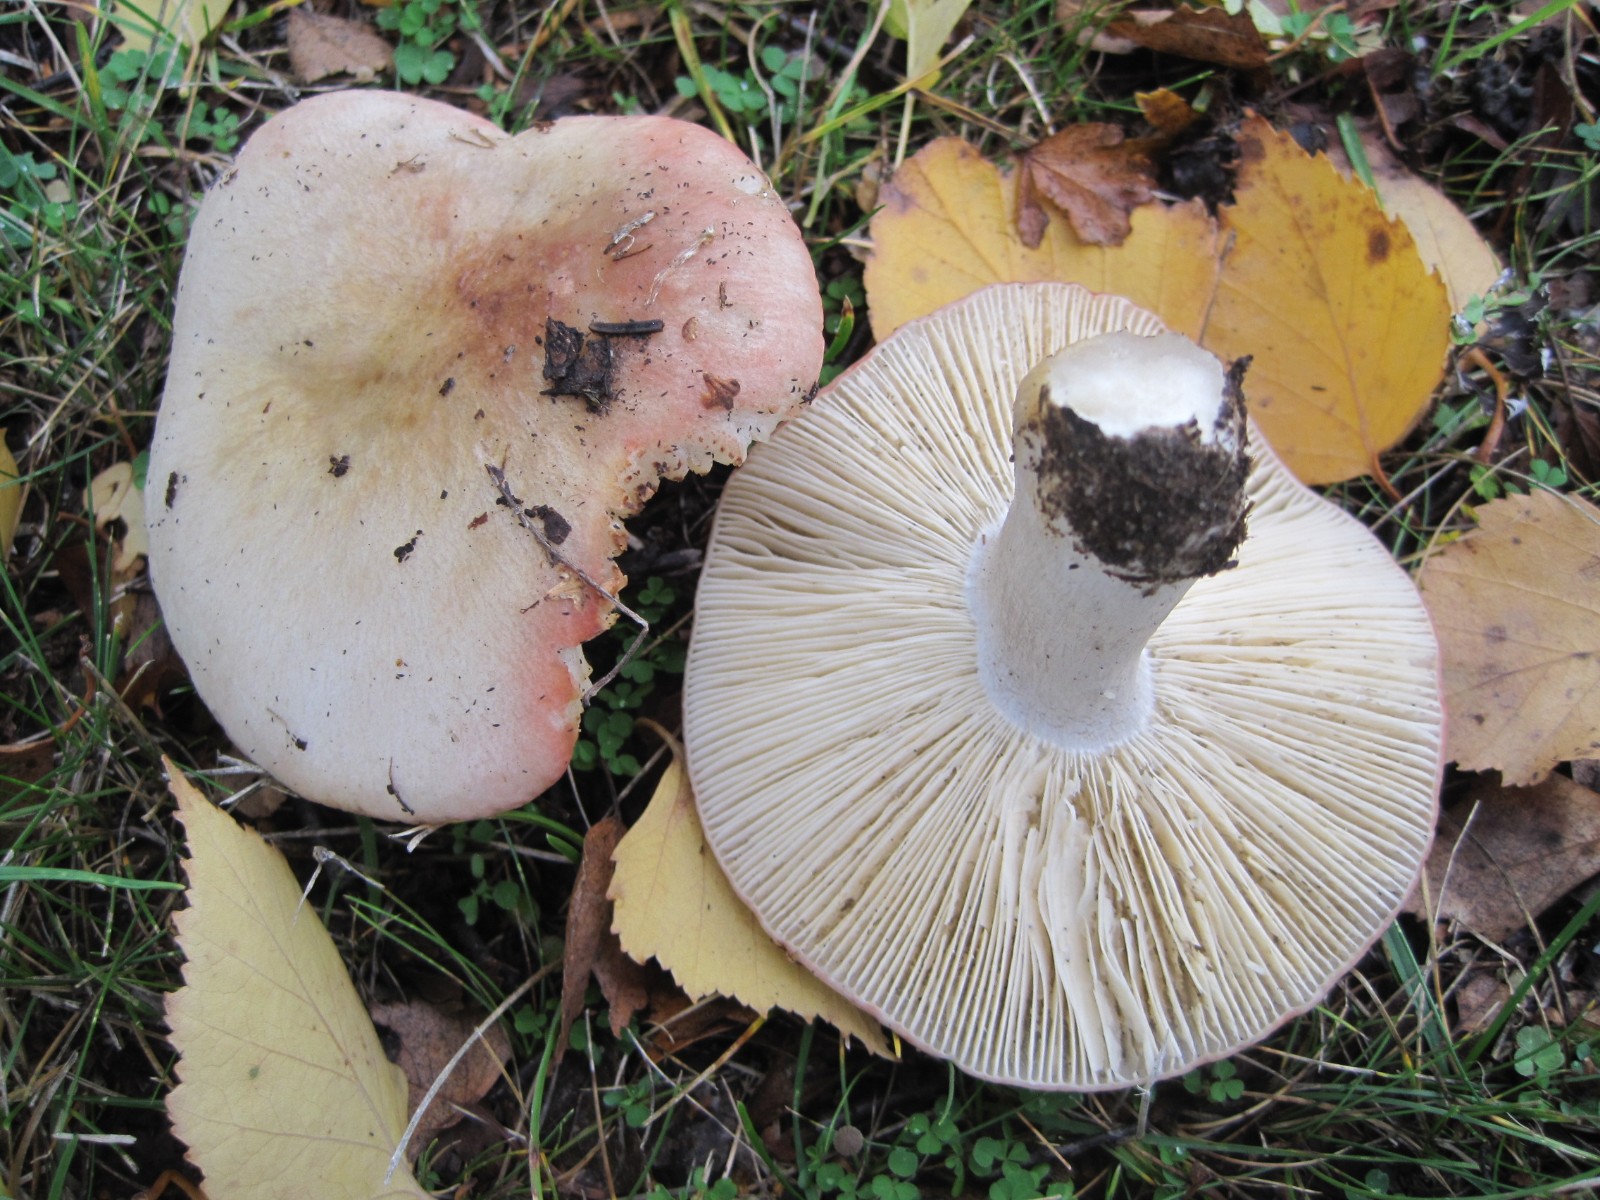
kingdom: Fungi
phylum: Basidiomycota
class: Agaricomycetes
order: Russulales
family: Russulaceae
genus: Russula
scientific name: Russula depallens
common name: falmende skørhat
